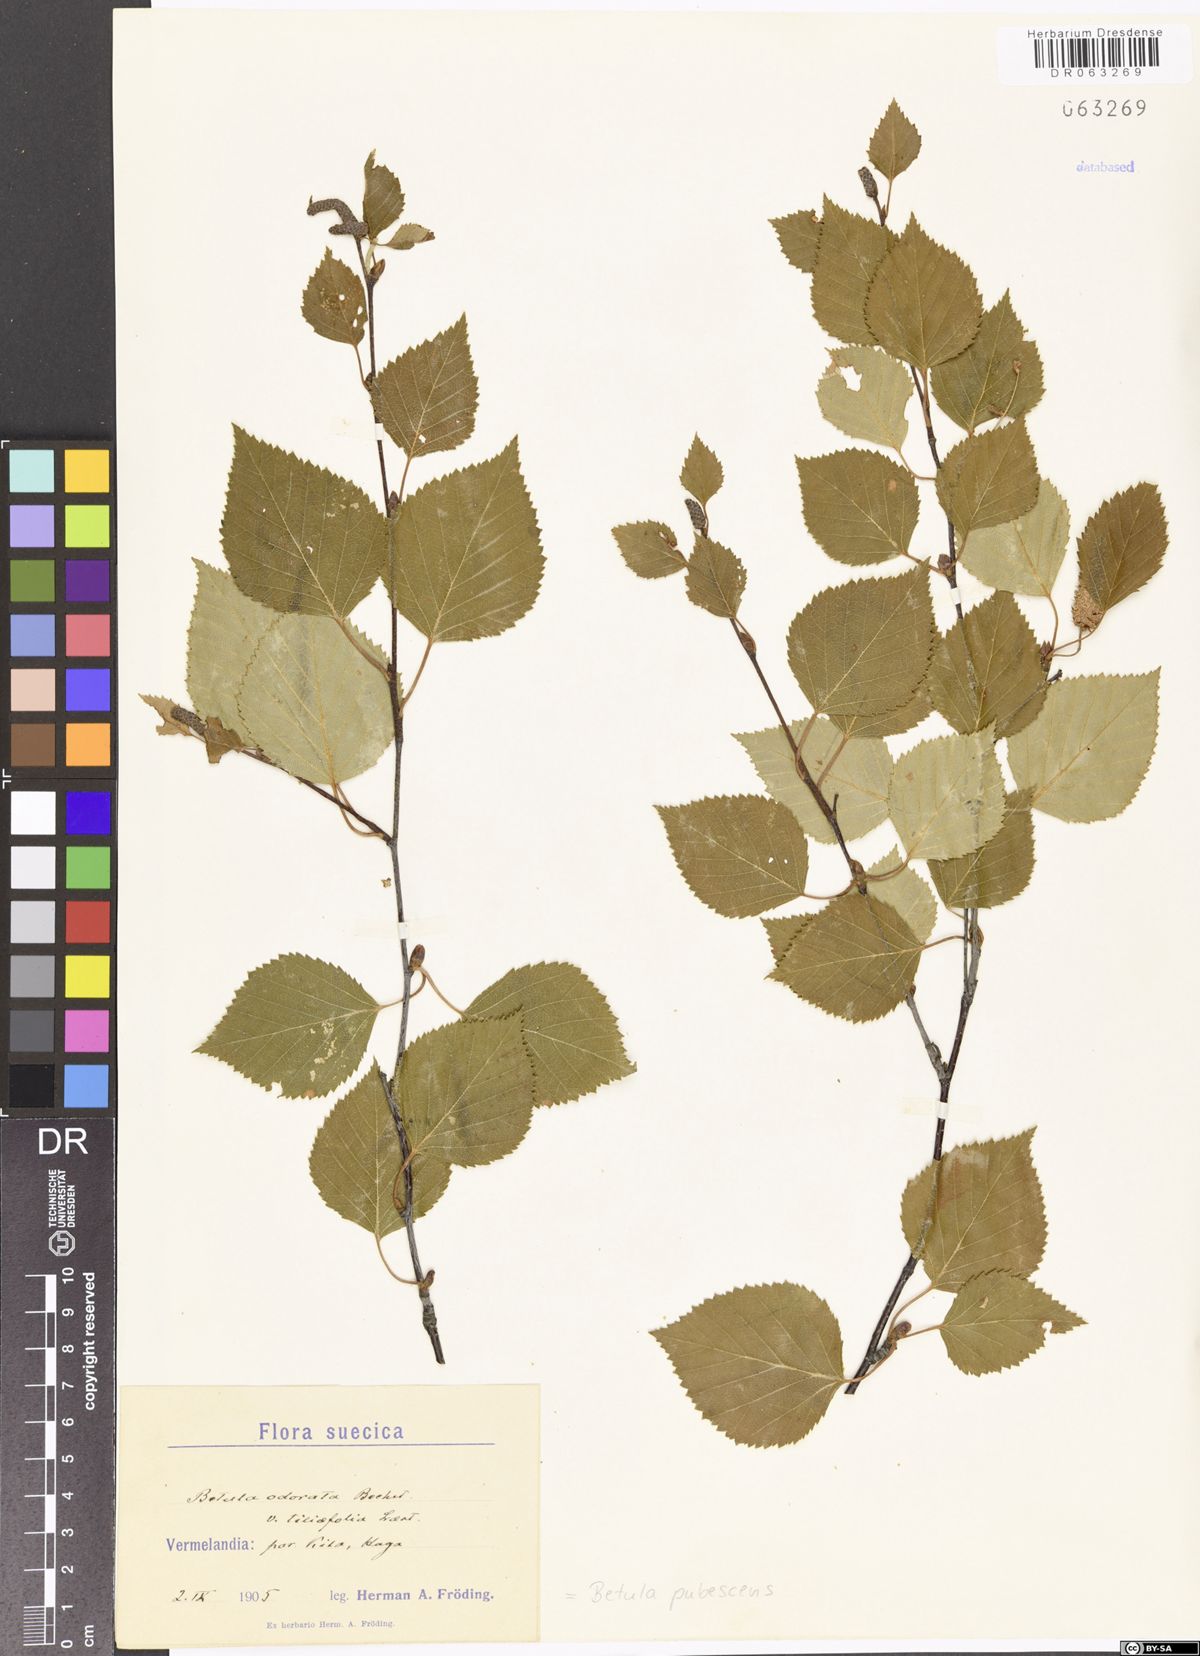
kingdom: Plantae
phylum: Tracheophyta
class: Magnoliopsida
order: Fagales
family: Betulaceae
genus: Betula
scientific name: Betula pubescens
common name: Downy birch
